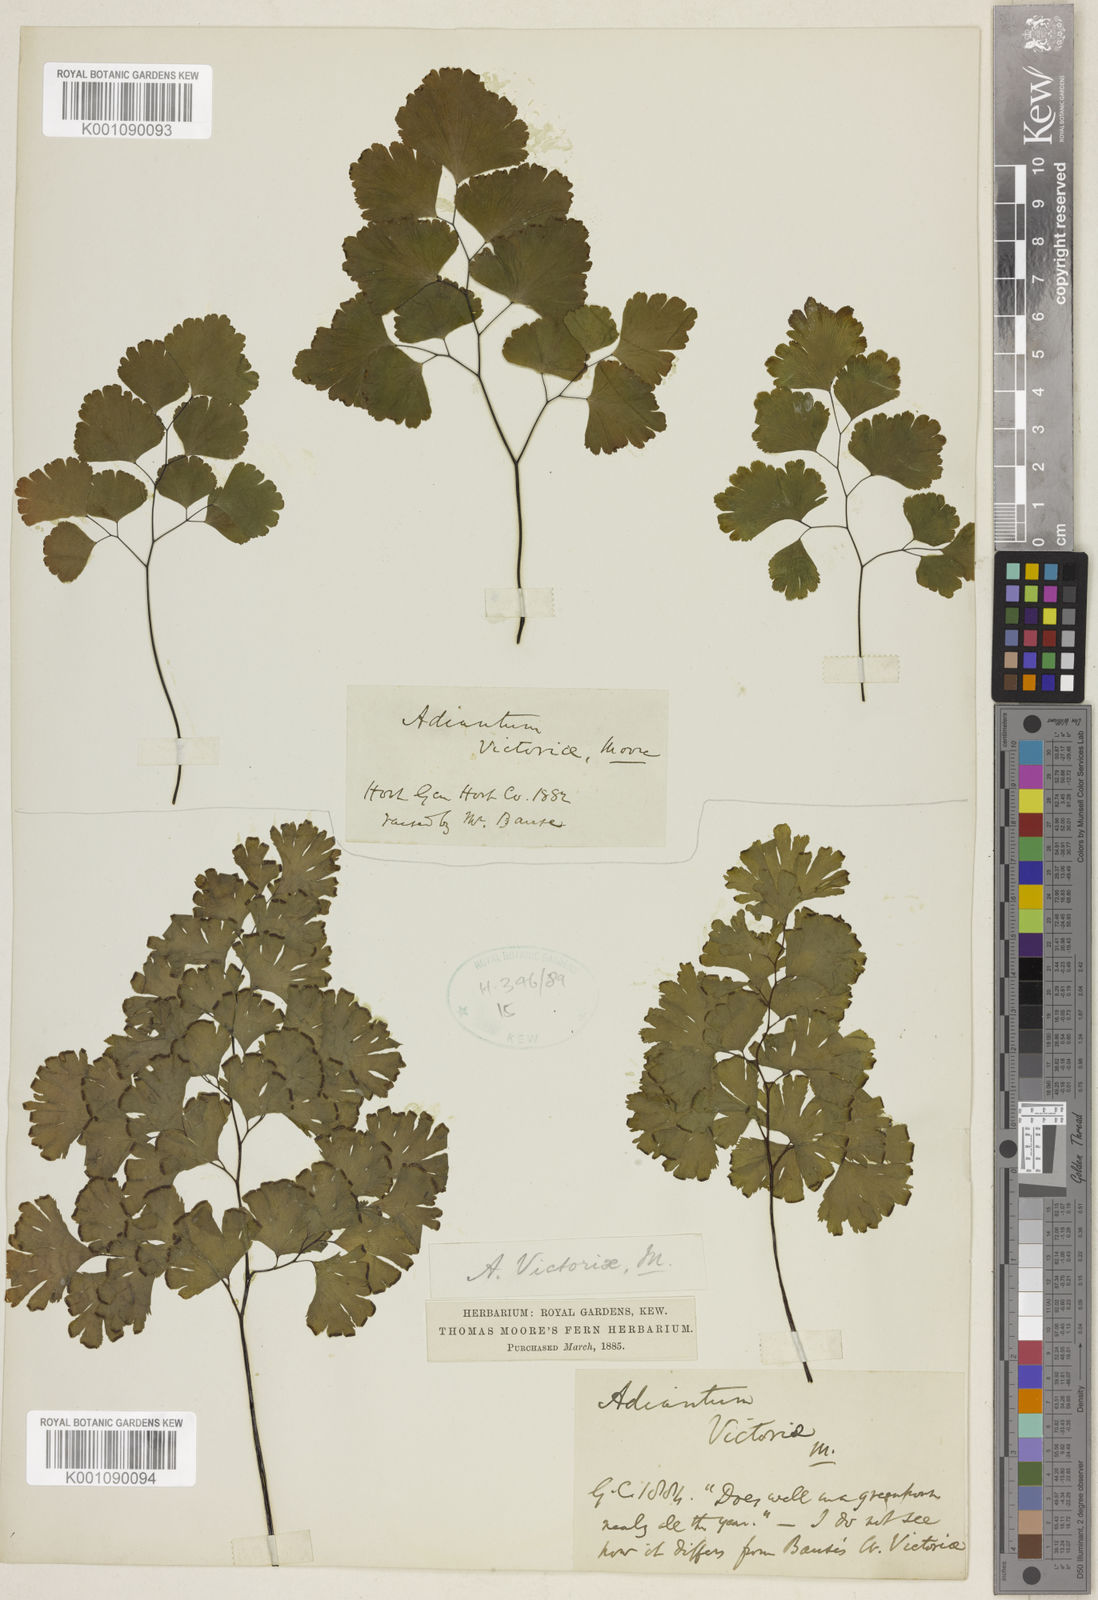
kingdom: Plantae
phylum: Tracheophyta
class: Polypodiopsida
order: Polypodiales
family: Pteridaceae
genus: Adiantum
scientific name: Adiantum victoriae
